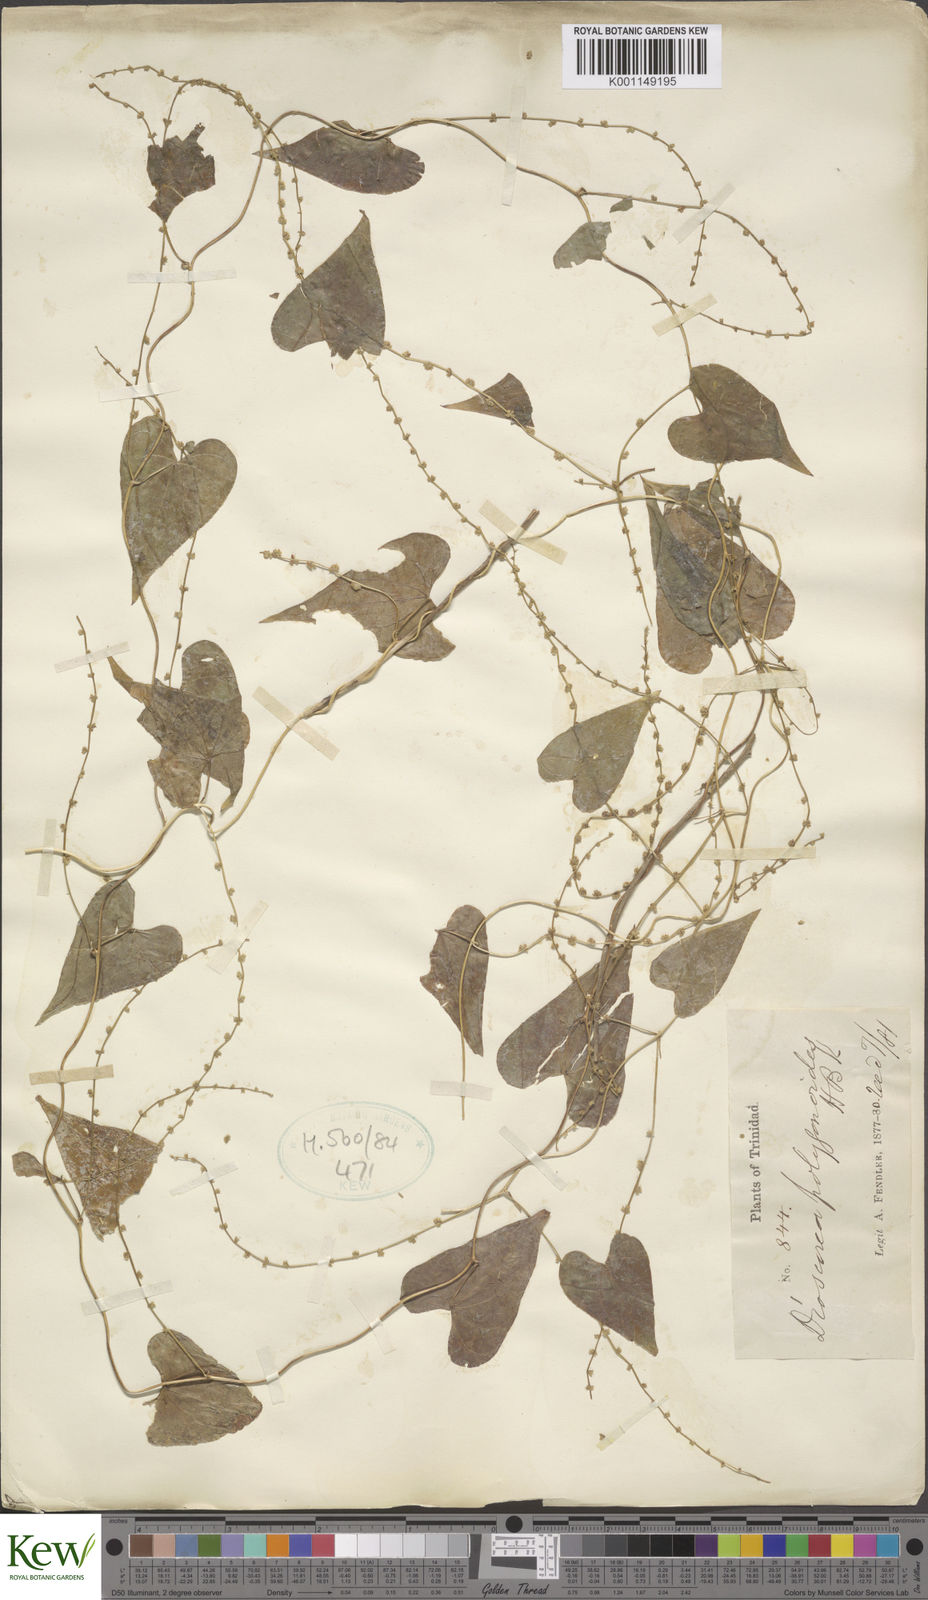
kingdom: Plantae
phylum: Tracheophyta
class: Liliopsida
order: Dioscoreales
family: Dioscoreaceae
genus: Dioscorea
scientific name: Dioscorea polygonoides
